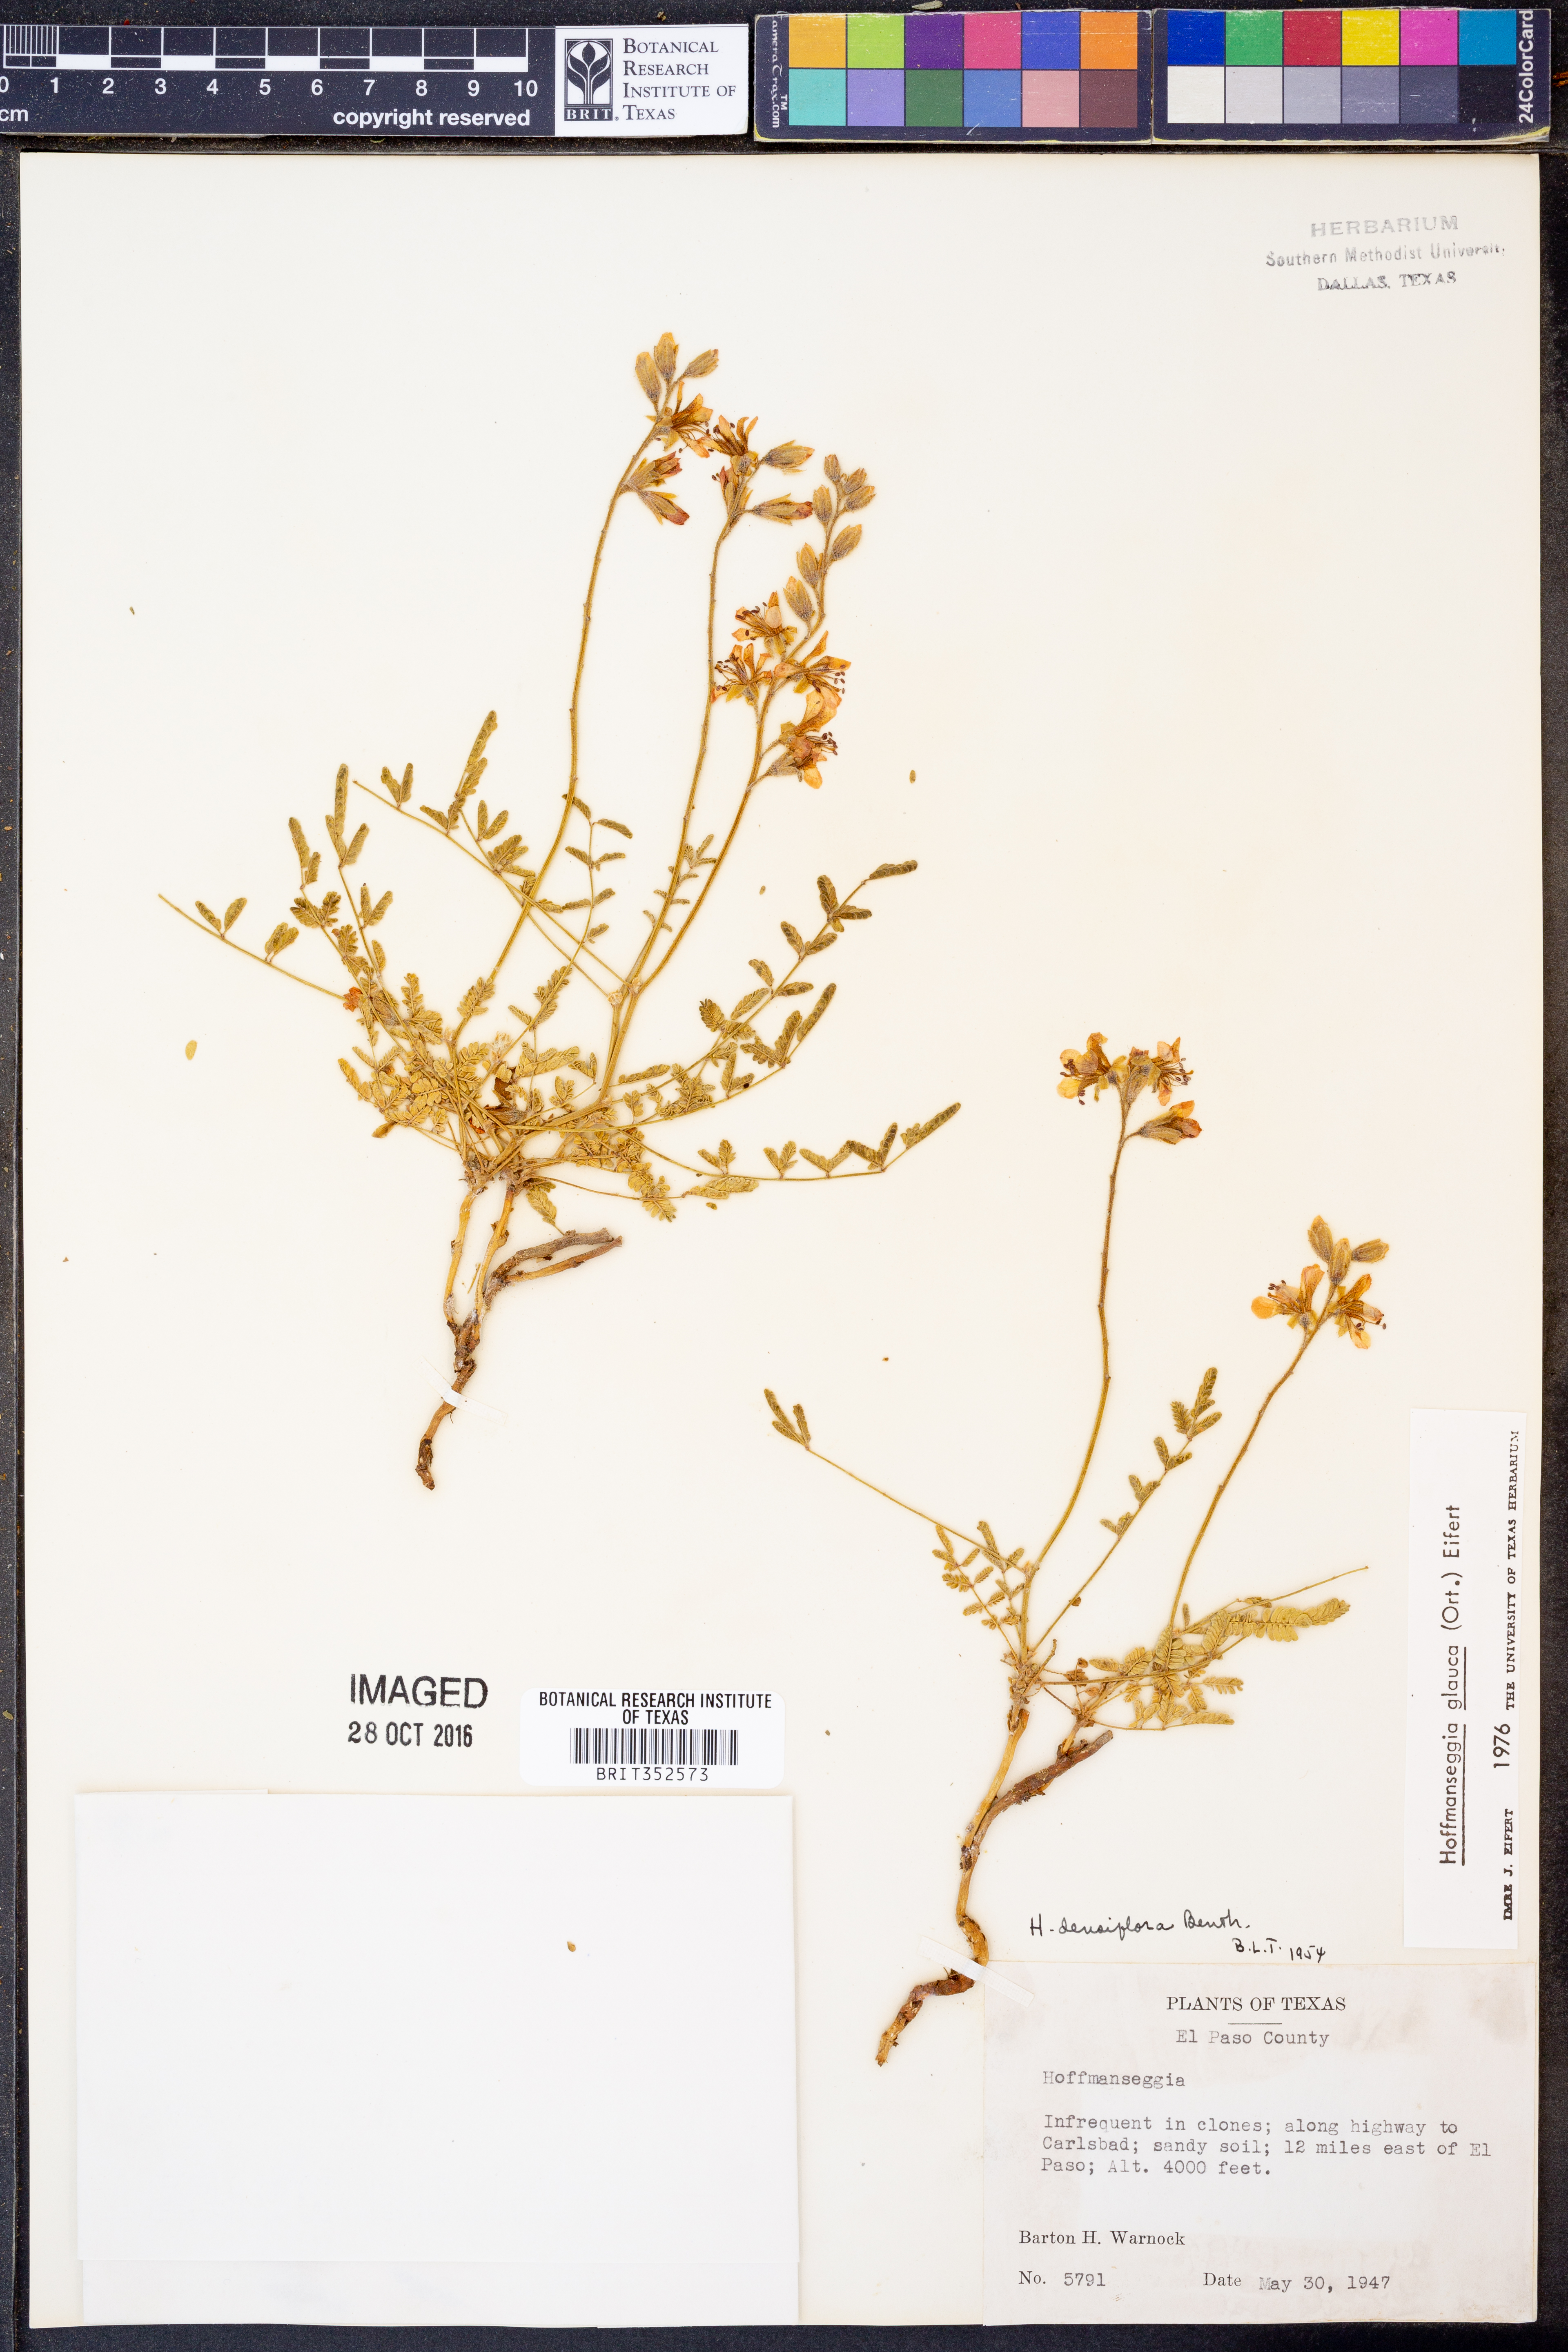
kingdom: Plantae
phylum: Tracheophyta
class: Magnoliopsida
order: Fabales
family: Fabaceae
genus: Hoffmannseggia
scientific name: Hoffmannseggia glauca
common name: Pignut
